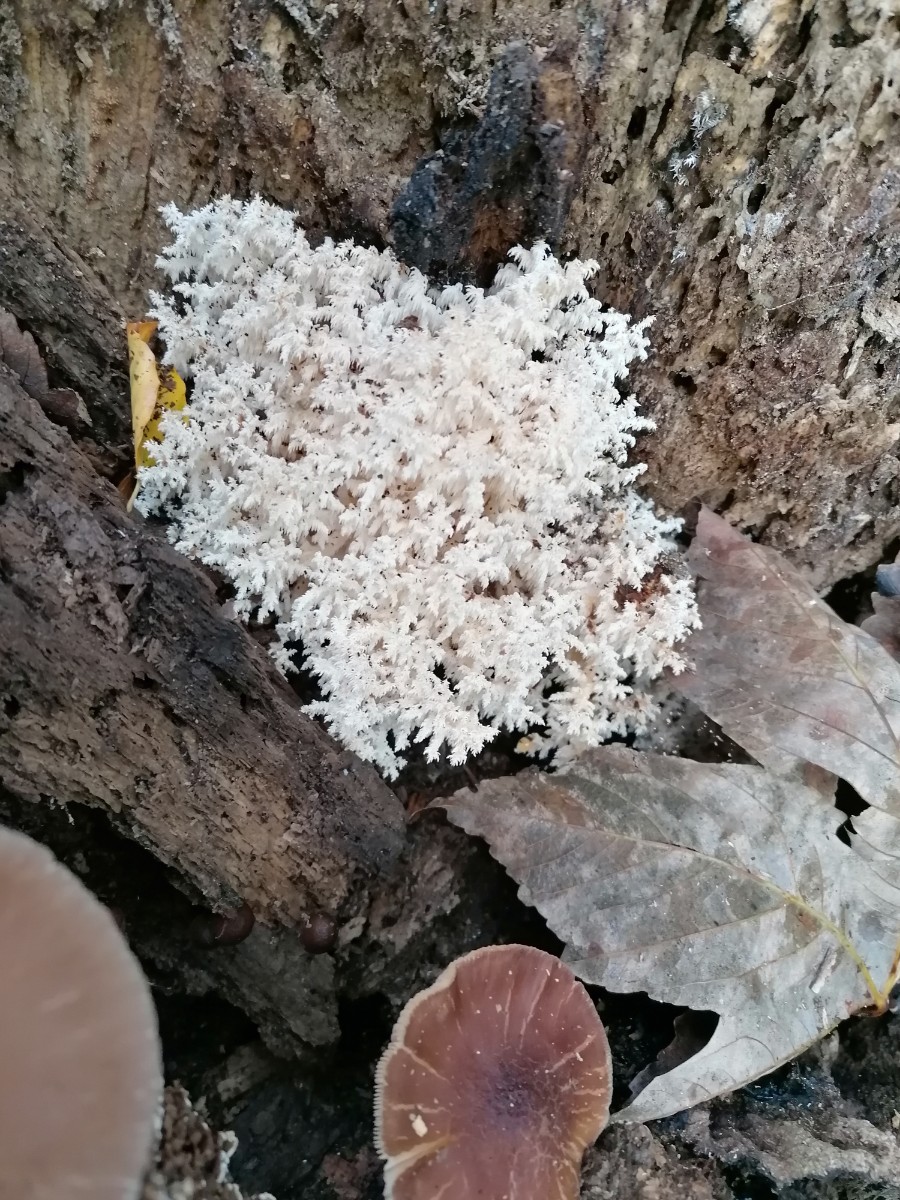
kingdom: Fungi
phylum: Basidiomycota
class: Agaricomycetes
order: Russulales
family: Hericiaceae
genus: Hericium
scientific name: Hericium coralloides
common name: koralpigsvamp
